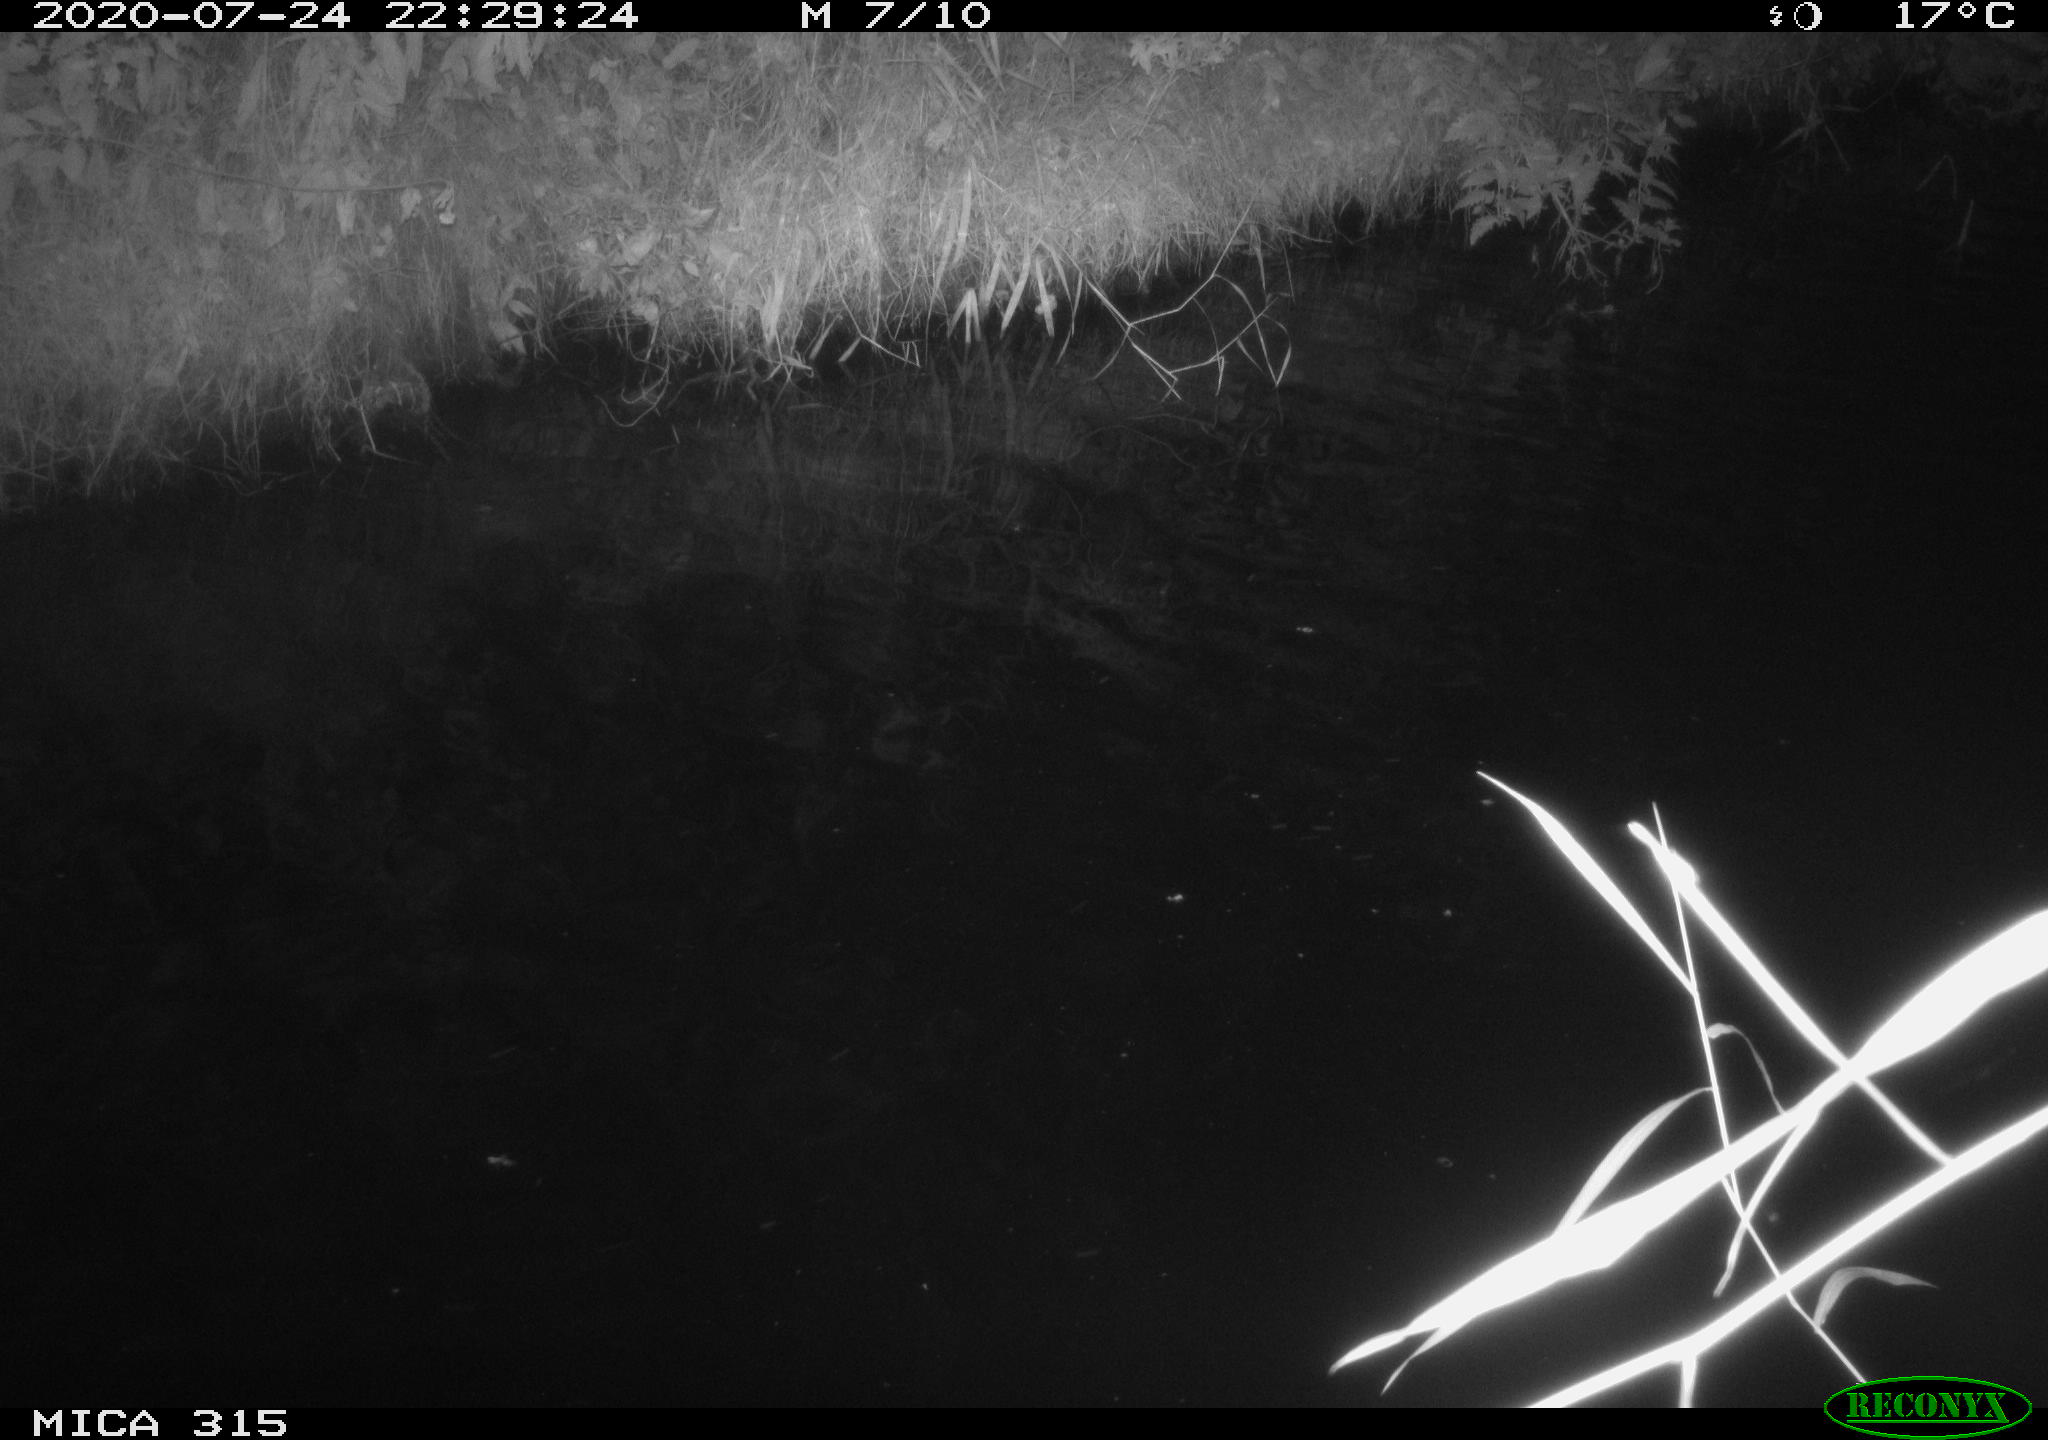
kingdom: Animalia
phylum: Chordata
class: Aves
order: Anseriformes
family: Anatidae
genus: Anas
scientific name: Anas platyrhynchos
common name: Mallard
